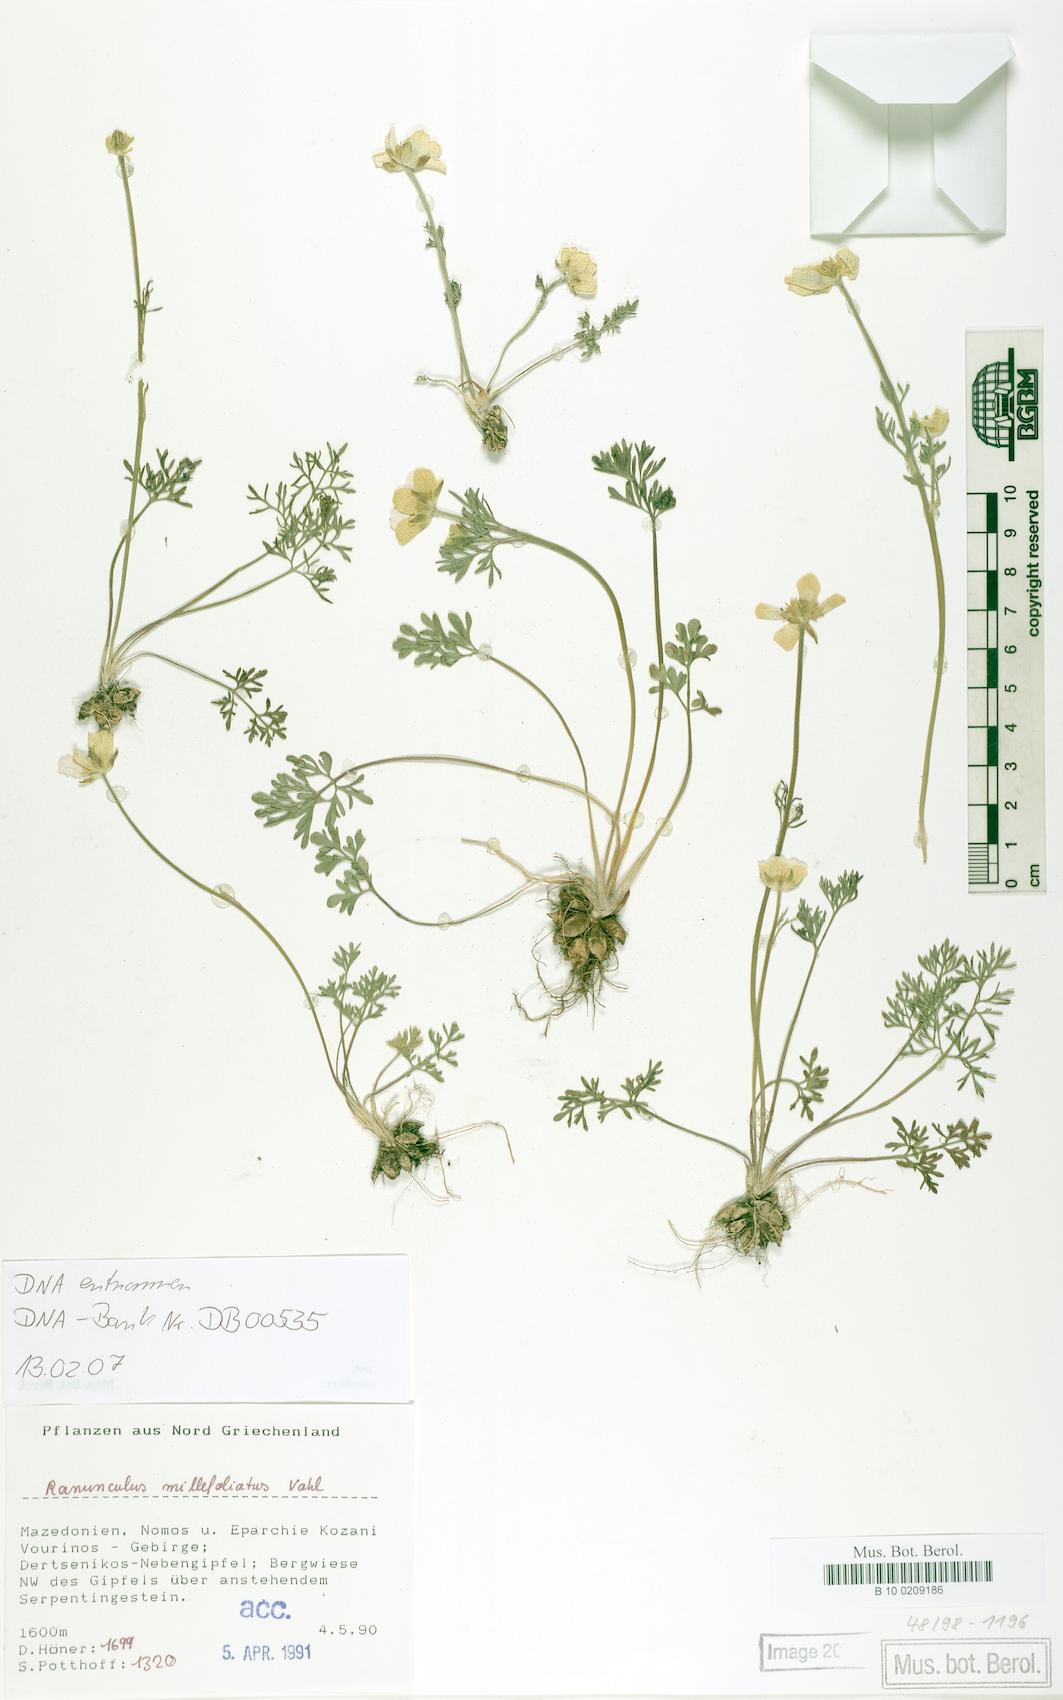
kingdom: Plantae
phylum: Tracheophyta
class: Magnoliopsida
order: Ranunculales
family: Ranunculaceae
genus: Ranunculus
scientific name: Ranunculus millefoliatus
